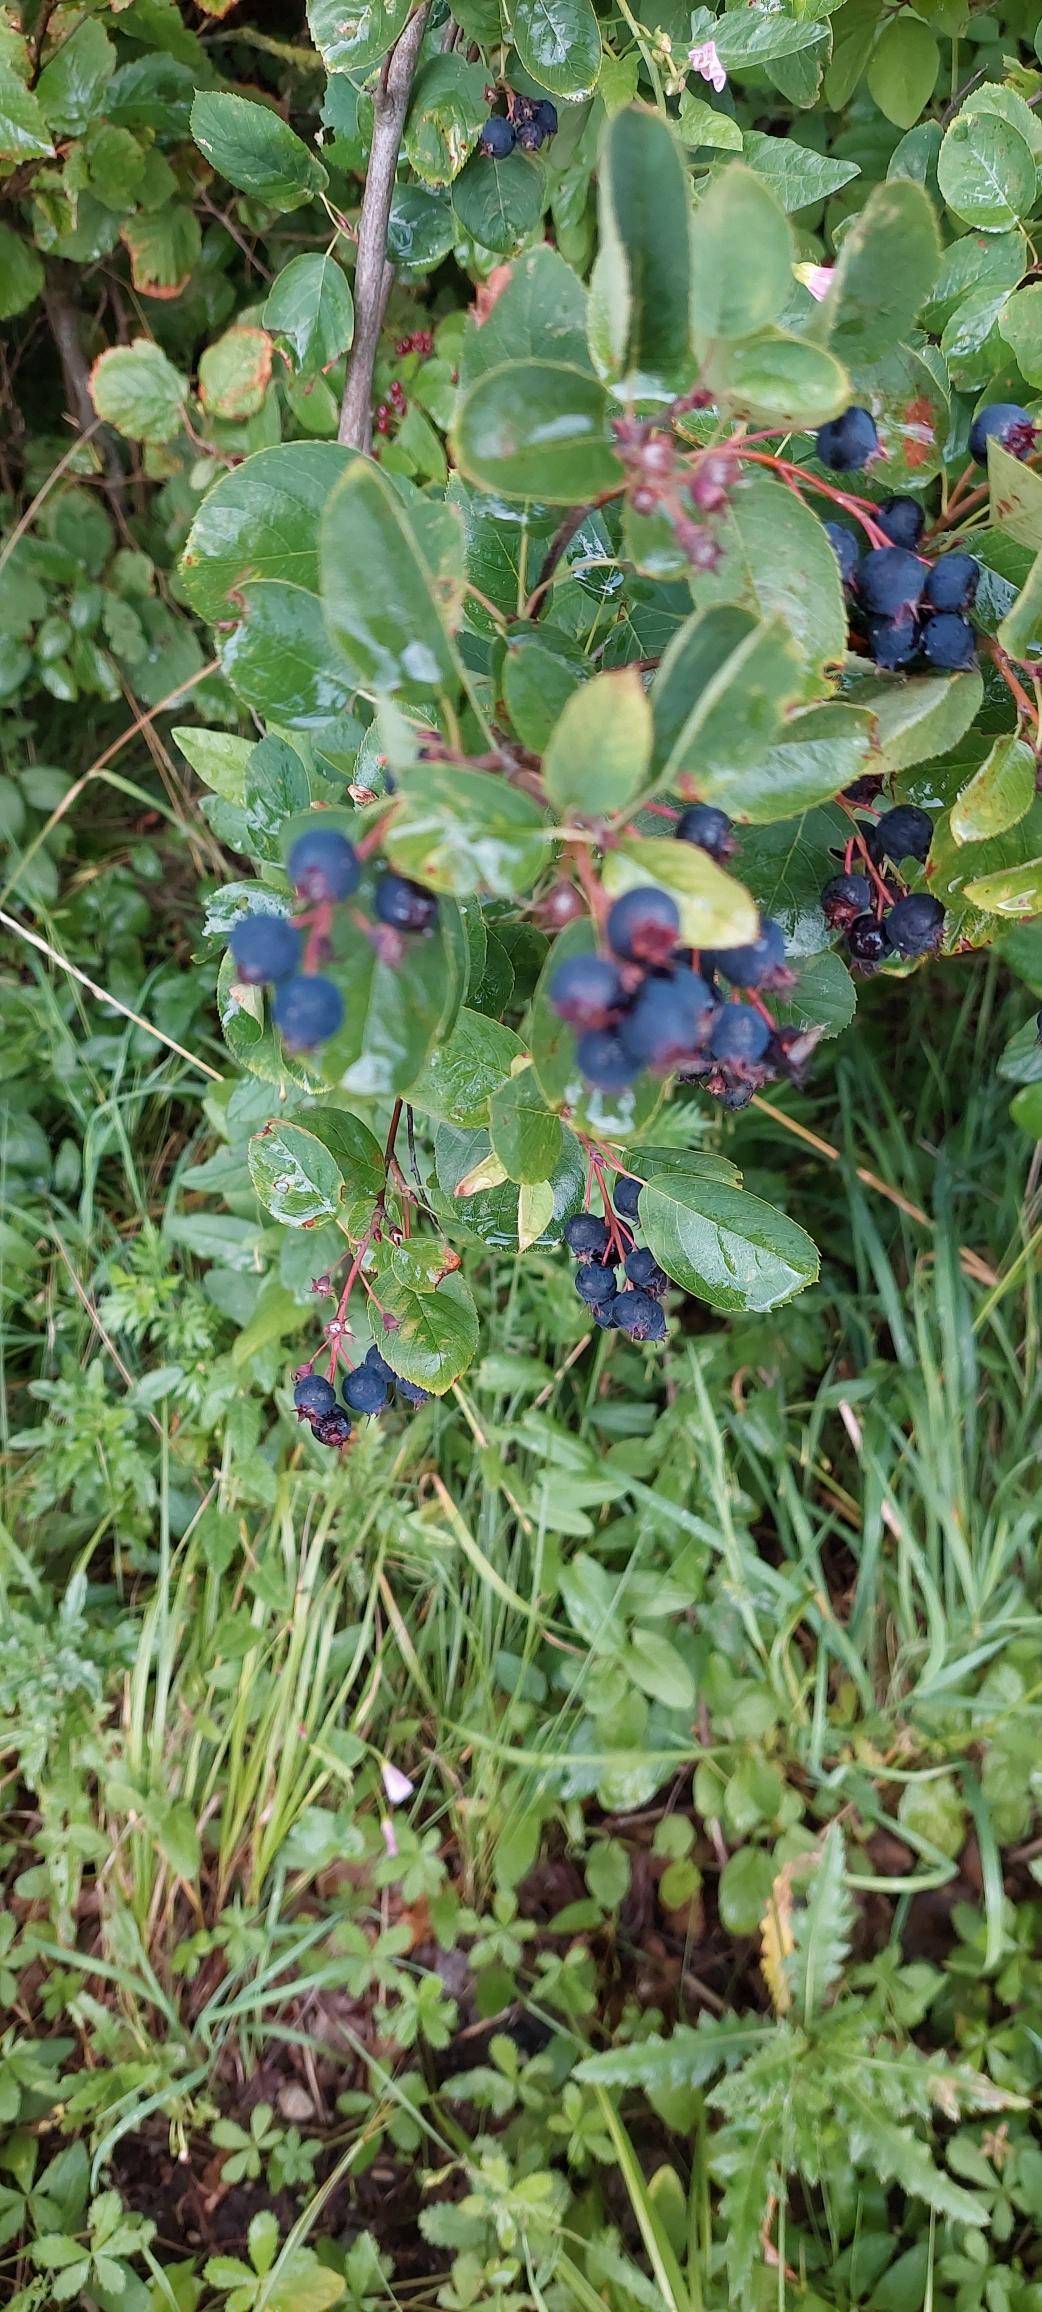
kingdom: Plantae
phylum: Tracheophyta
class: Magnoliopsida
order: Rosales
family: Rosaceae
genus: Amelanchier
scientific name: Amelanchier humilis
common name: Aks-bærmispel
